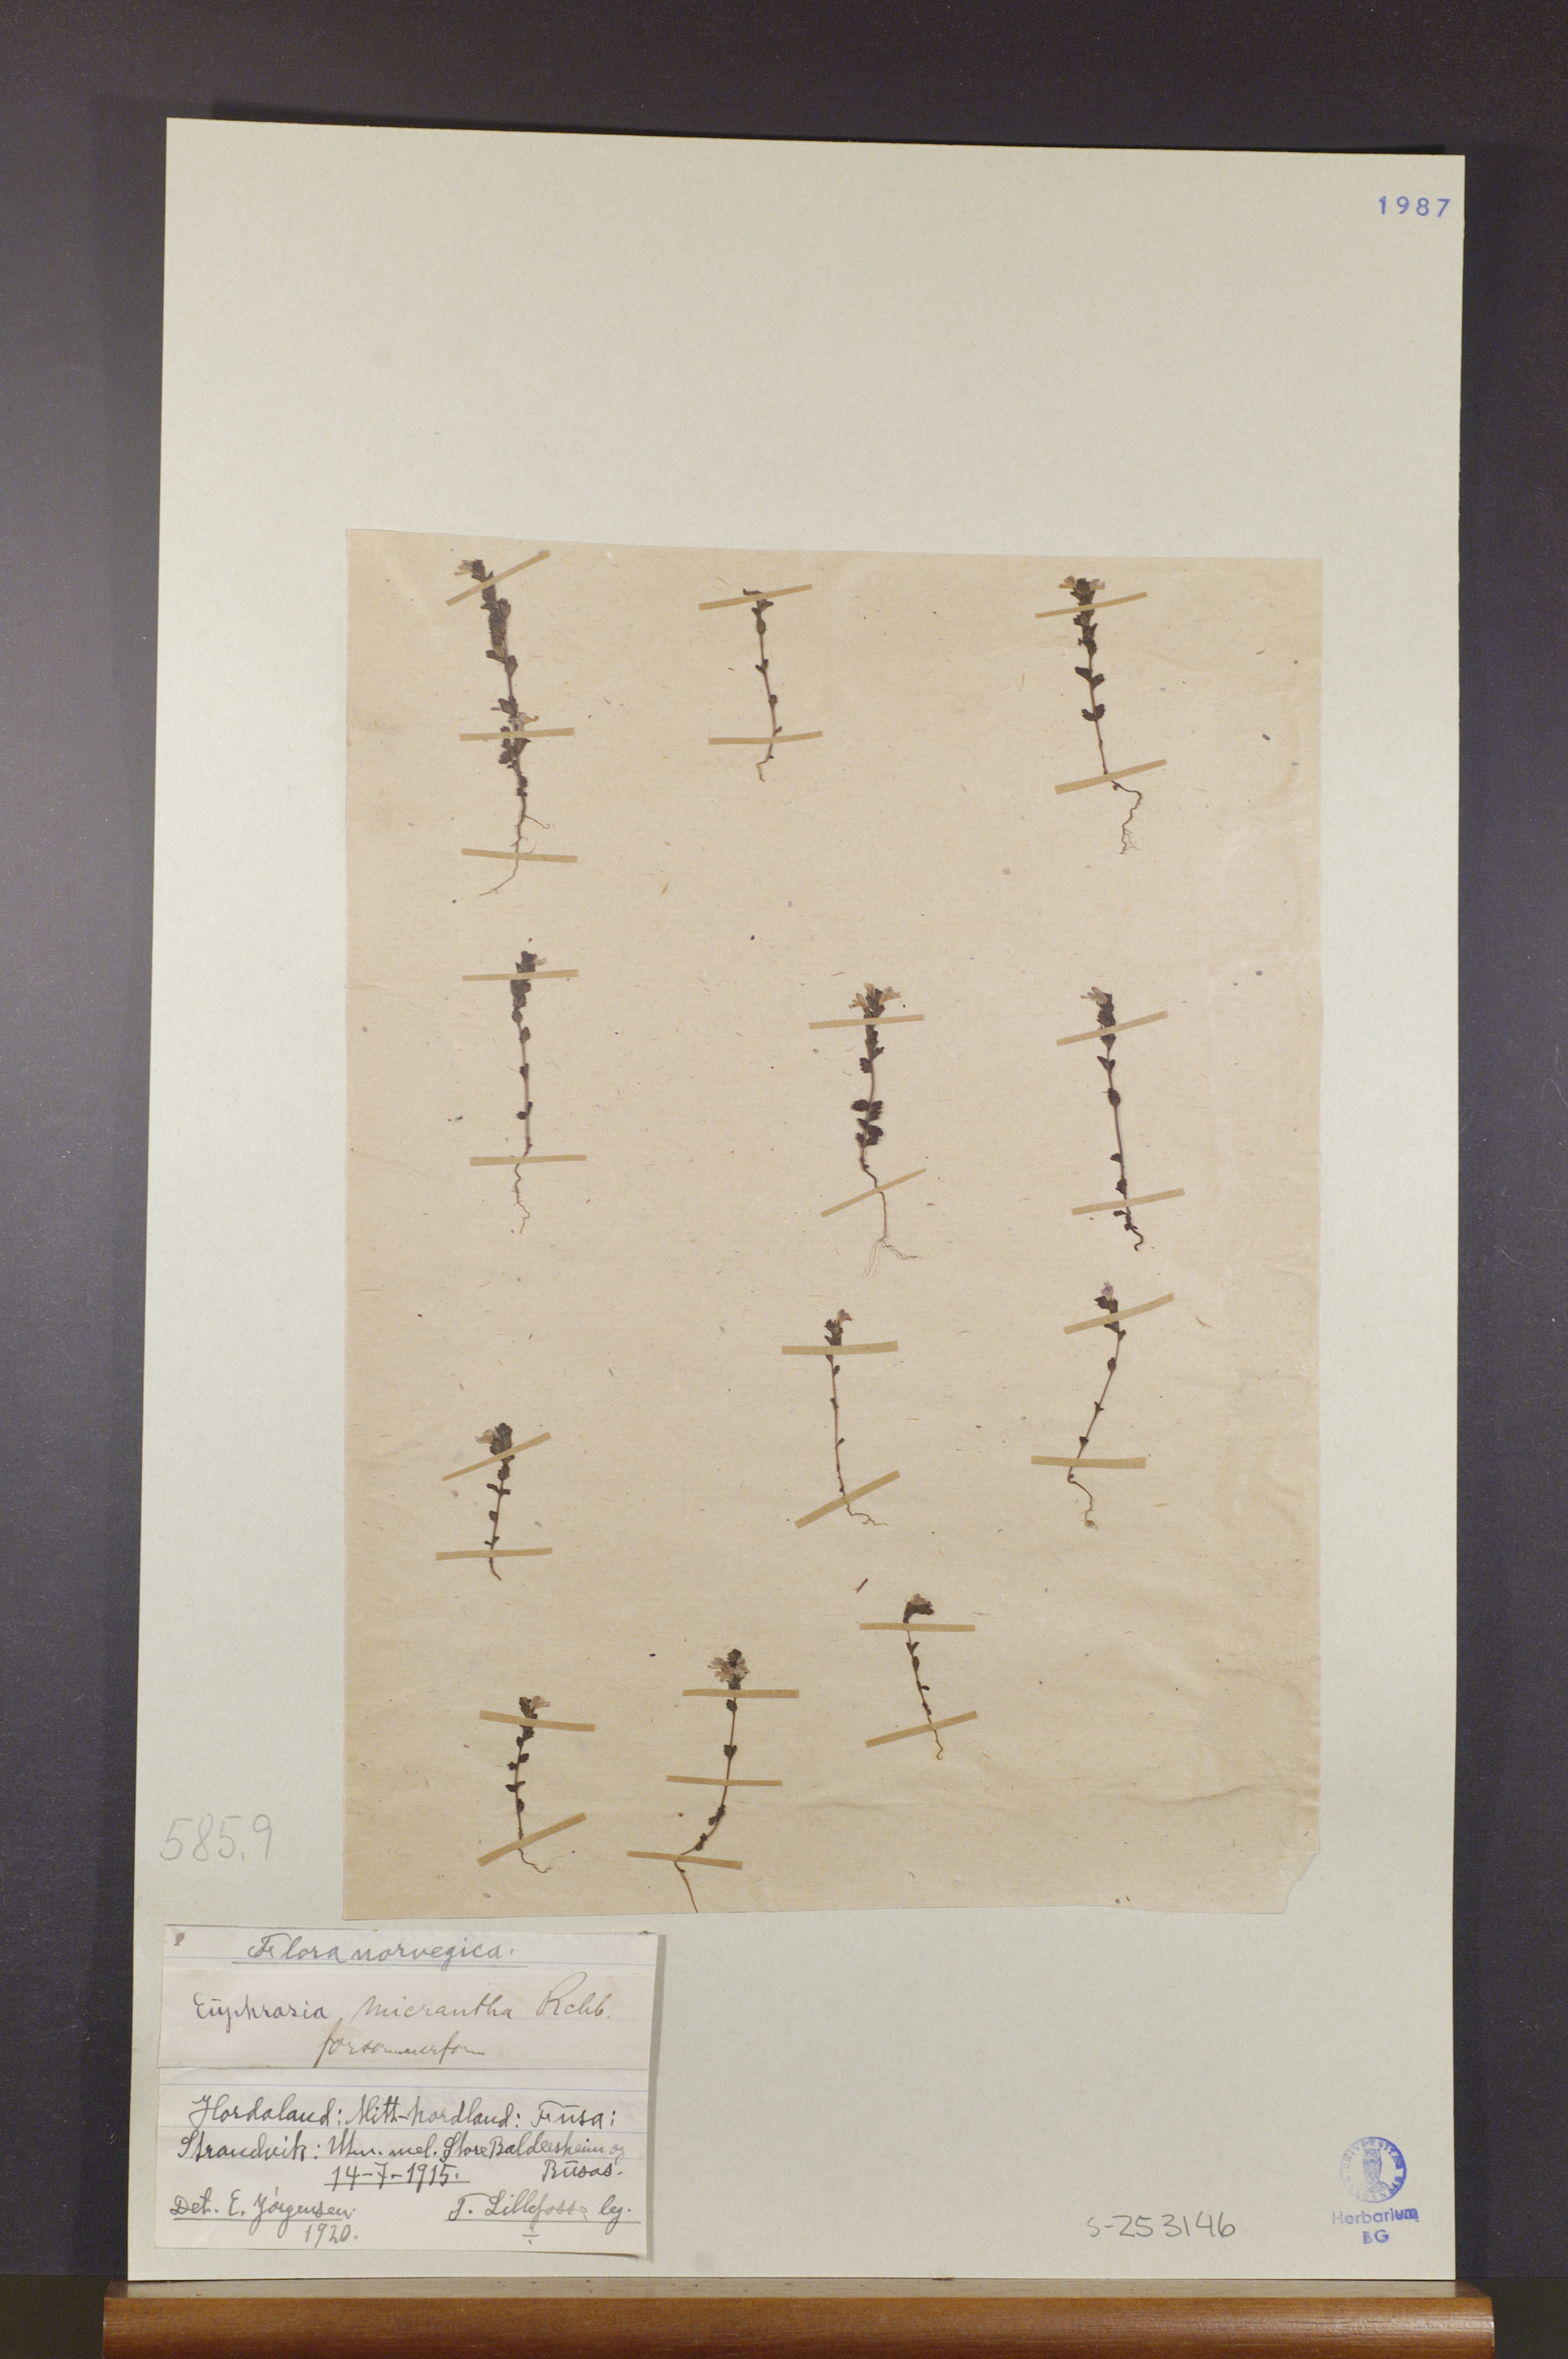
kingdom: Plantae
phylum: Tracheophyta
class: Magnoliopsida
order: Lamiales
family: Orobanchaceae
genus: Euphrasia
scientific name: Euphrasia micrantha
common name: Northern eyebright
